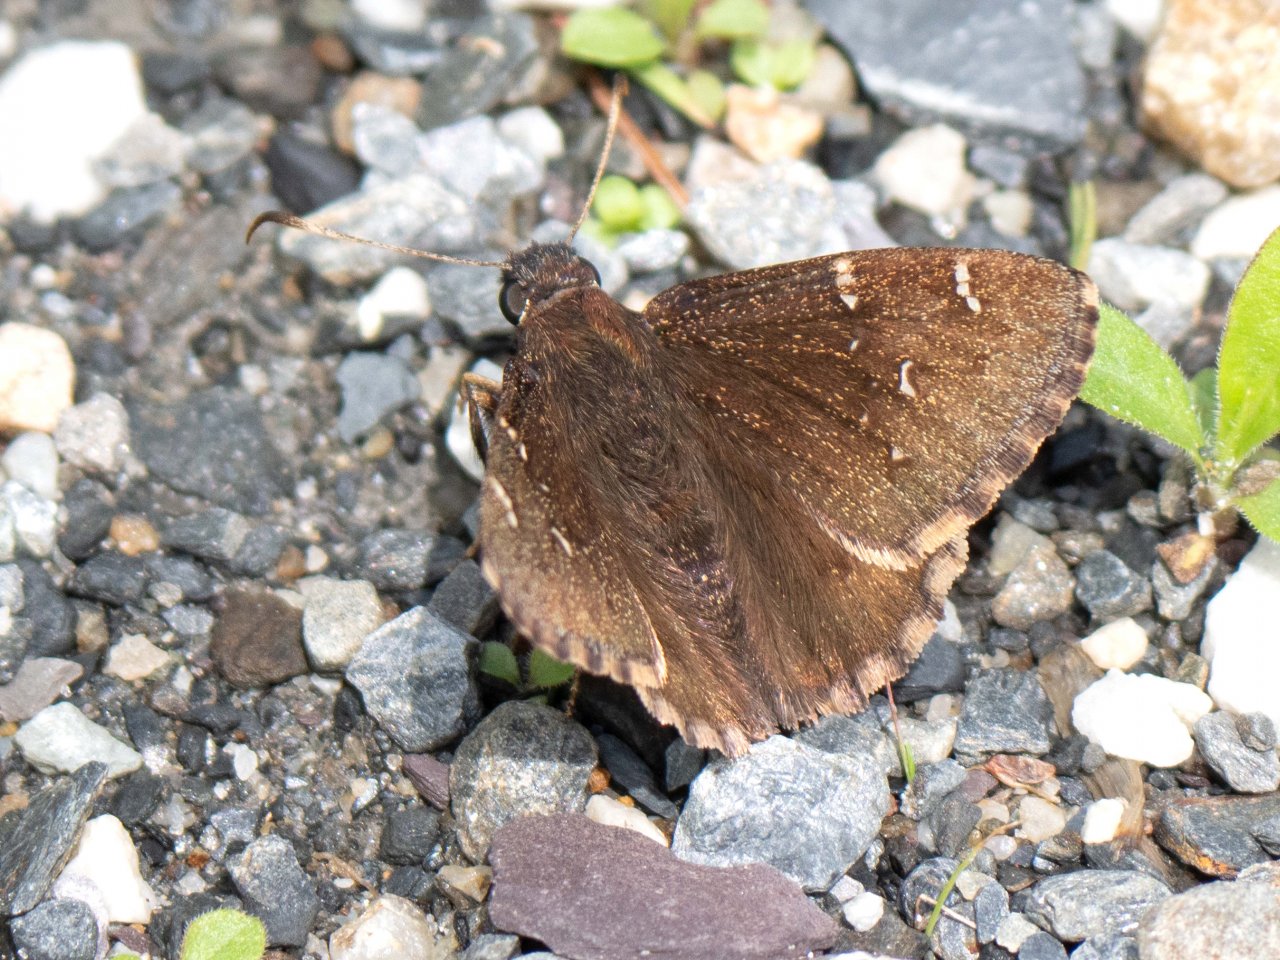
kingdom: Animalia
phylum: Arthropoda
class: Insecta
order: Lepidoptera
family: Hesperiidae
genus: Autochton
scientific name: Autochton
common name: Northern Cloudywing
